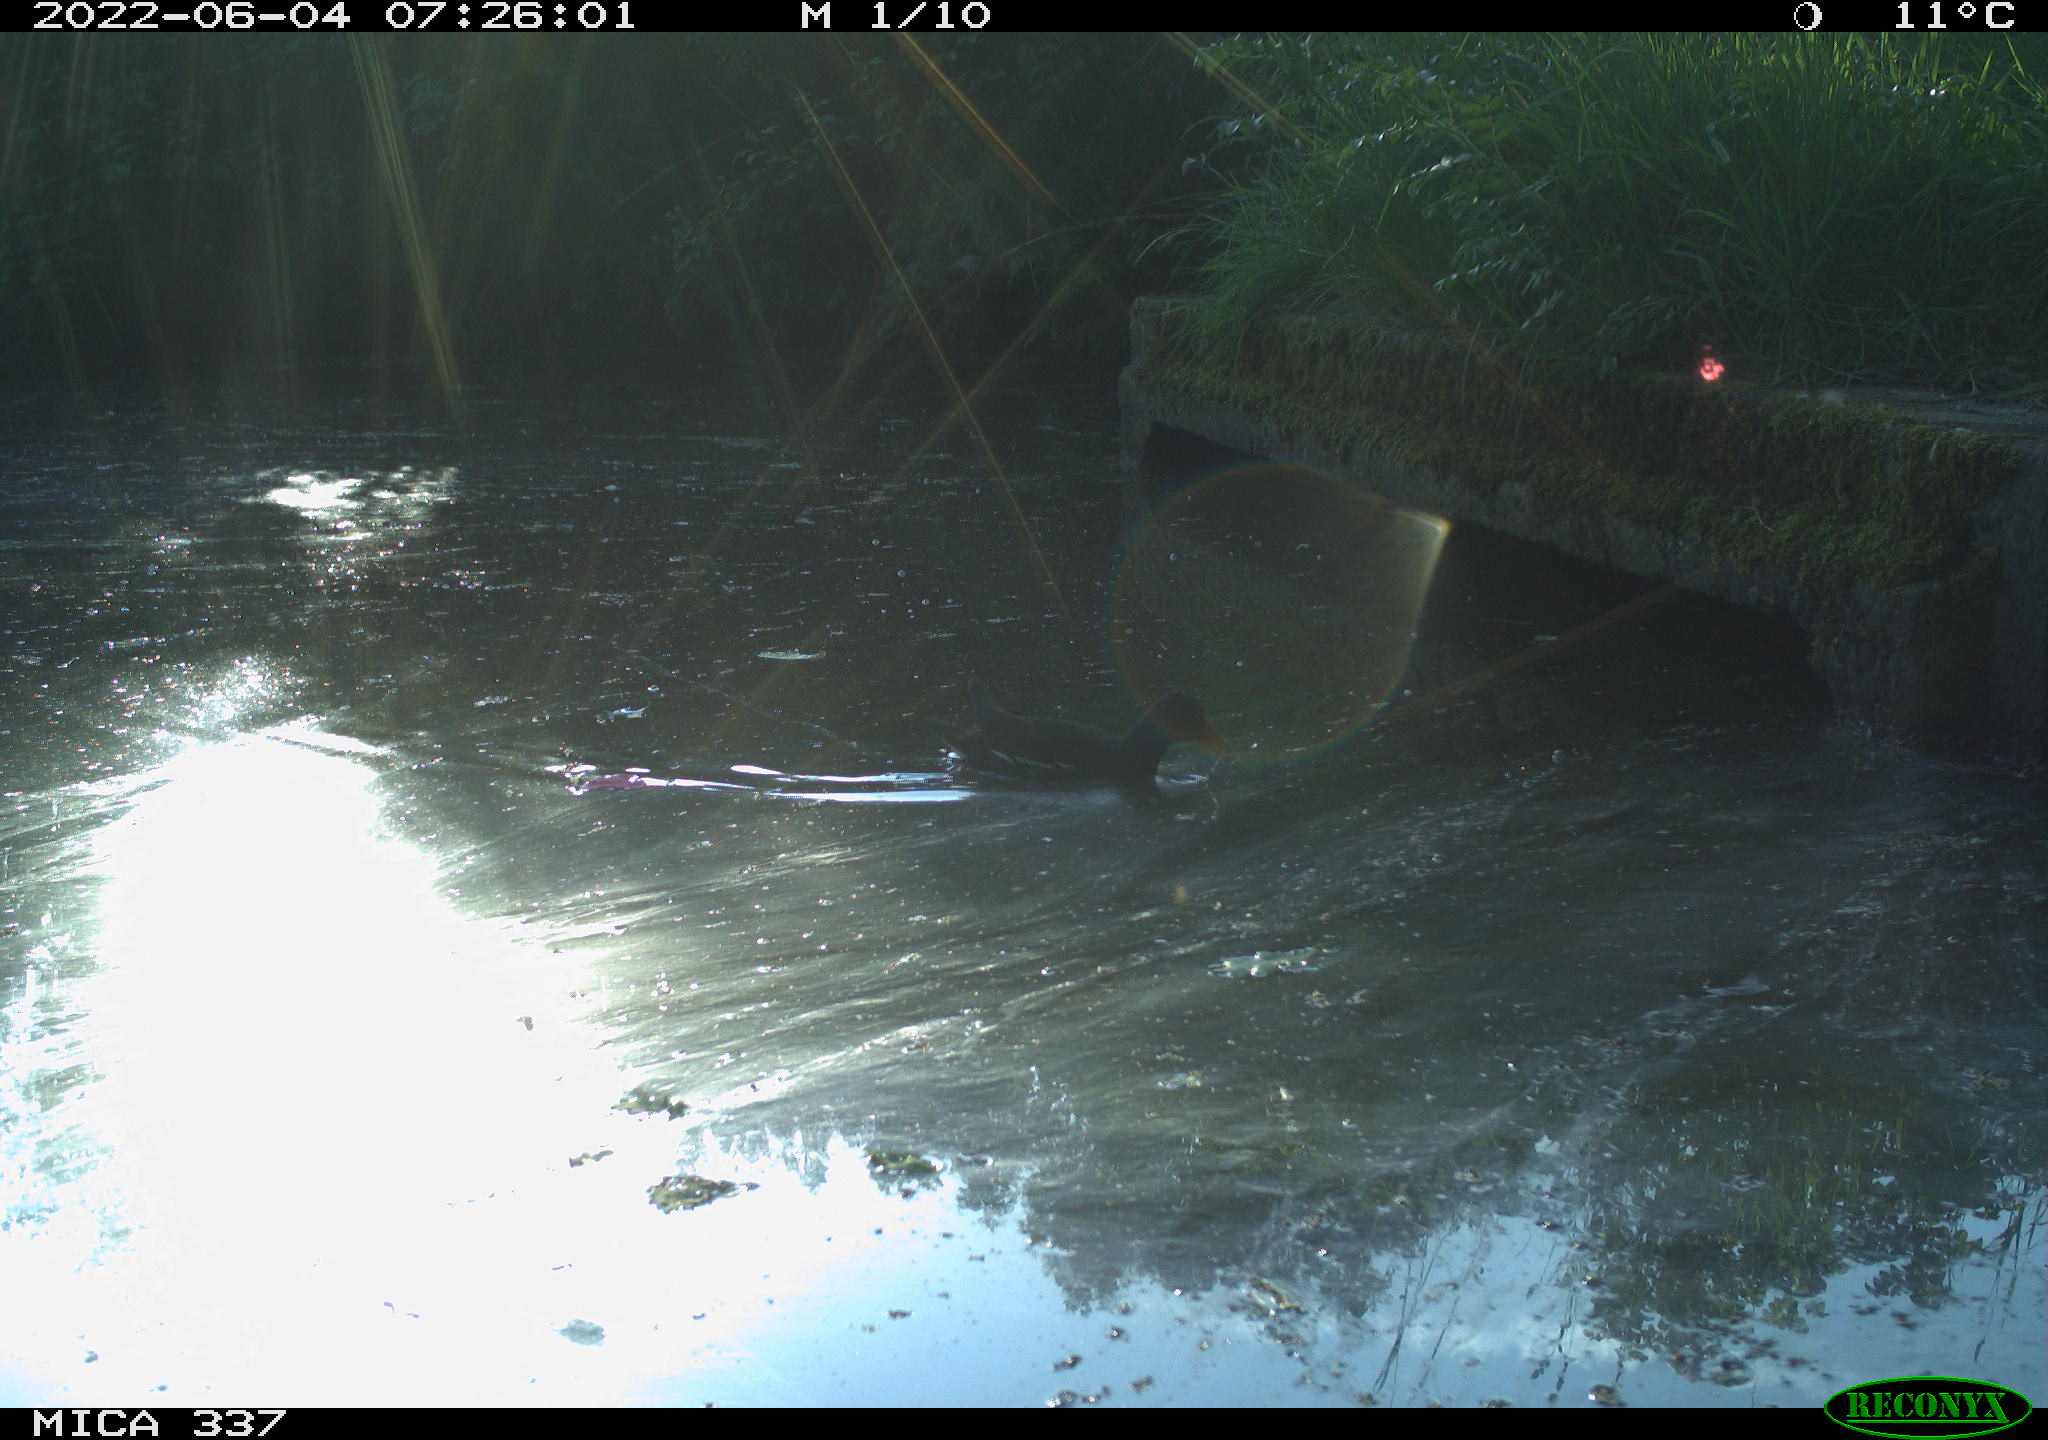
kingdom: Animalia
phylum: Chordata
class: Aves
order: Gruiformes
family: Rallidae
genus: Gallinula
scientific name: Gallinula chloropus
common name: Common moorhen
